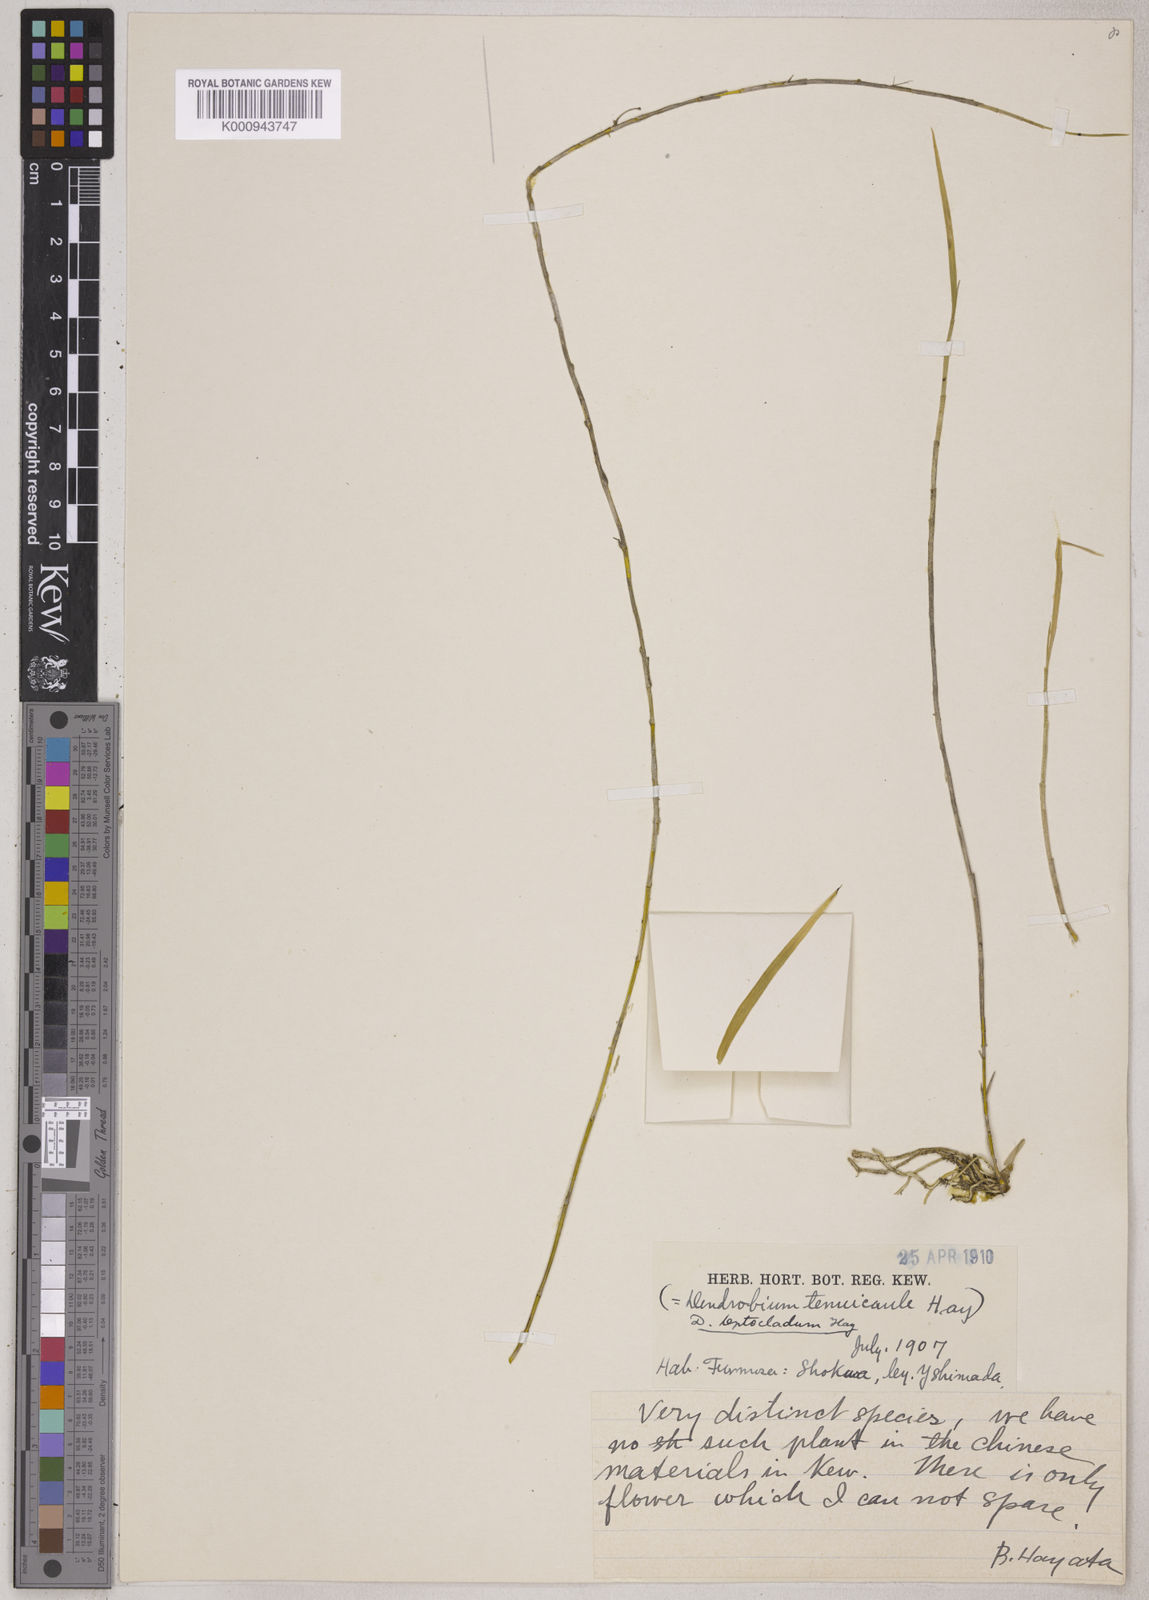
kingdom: Plantae
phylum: Tracheophyta
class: Liliopsida
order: Asparagales
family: Orchidaceae
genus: Dendrobium
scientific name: Dendrobium leptocladum
